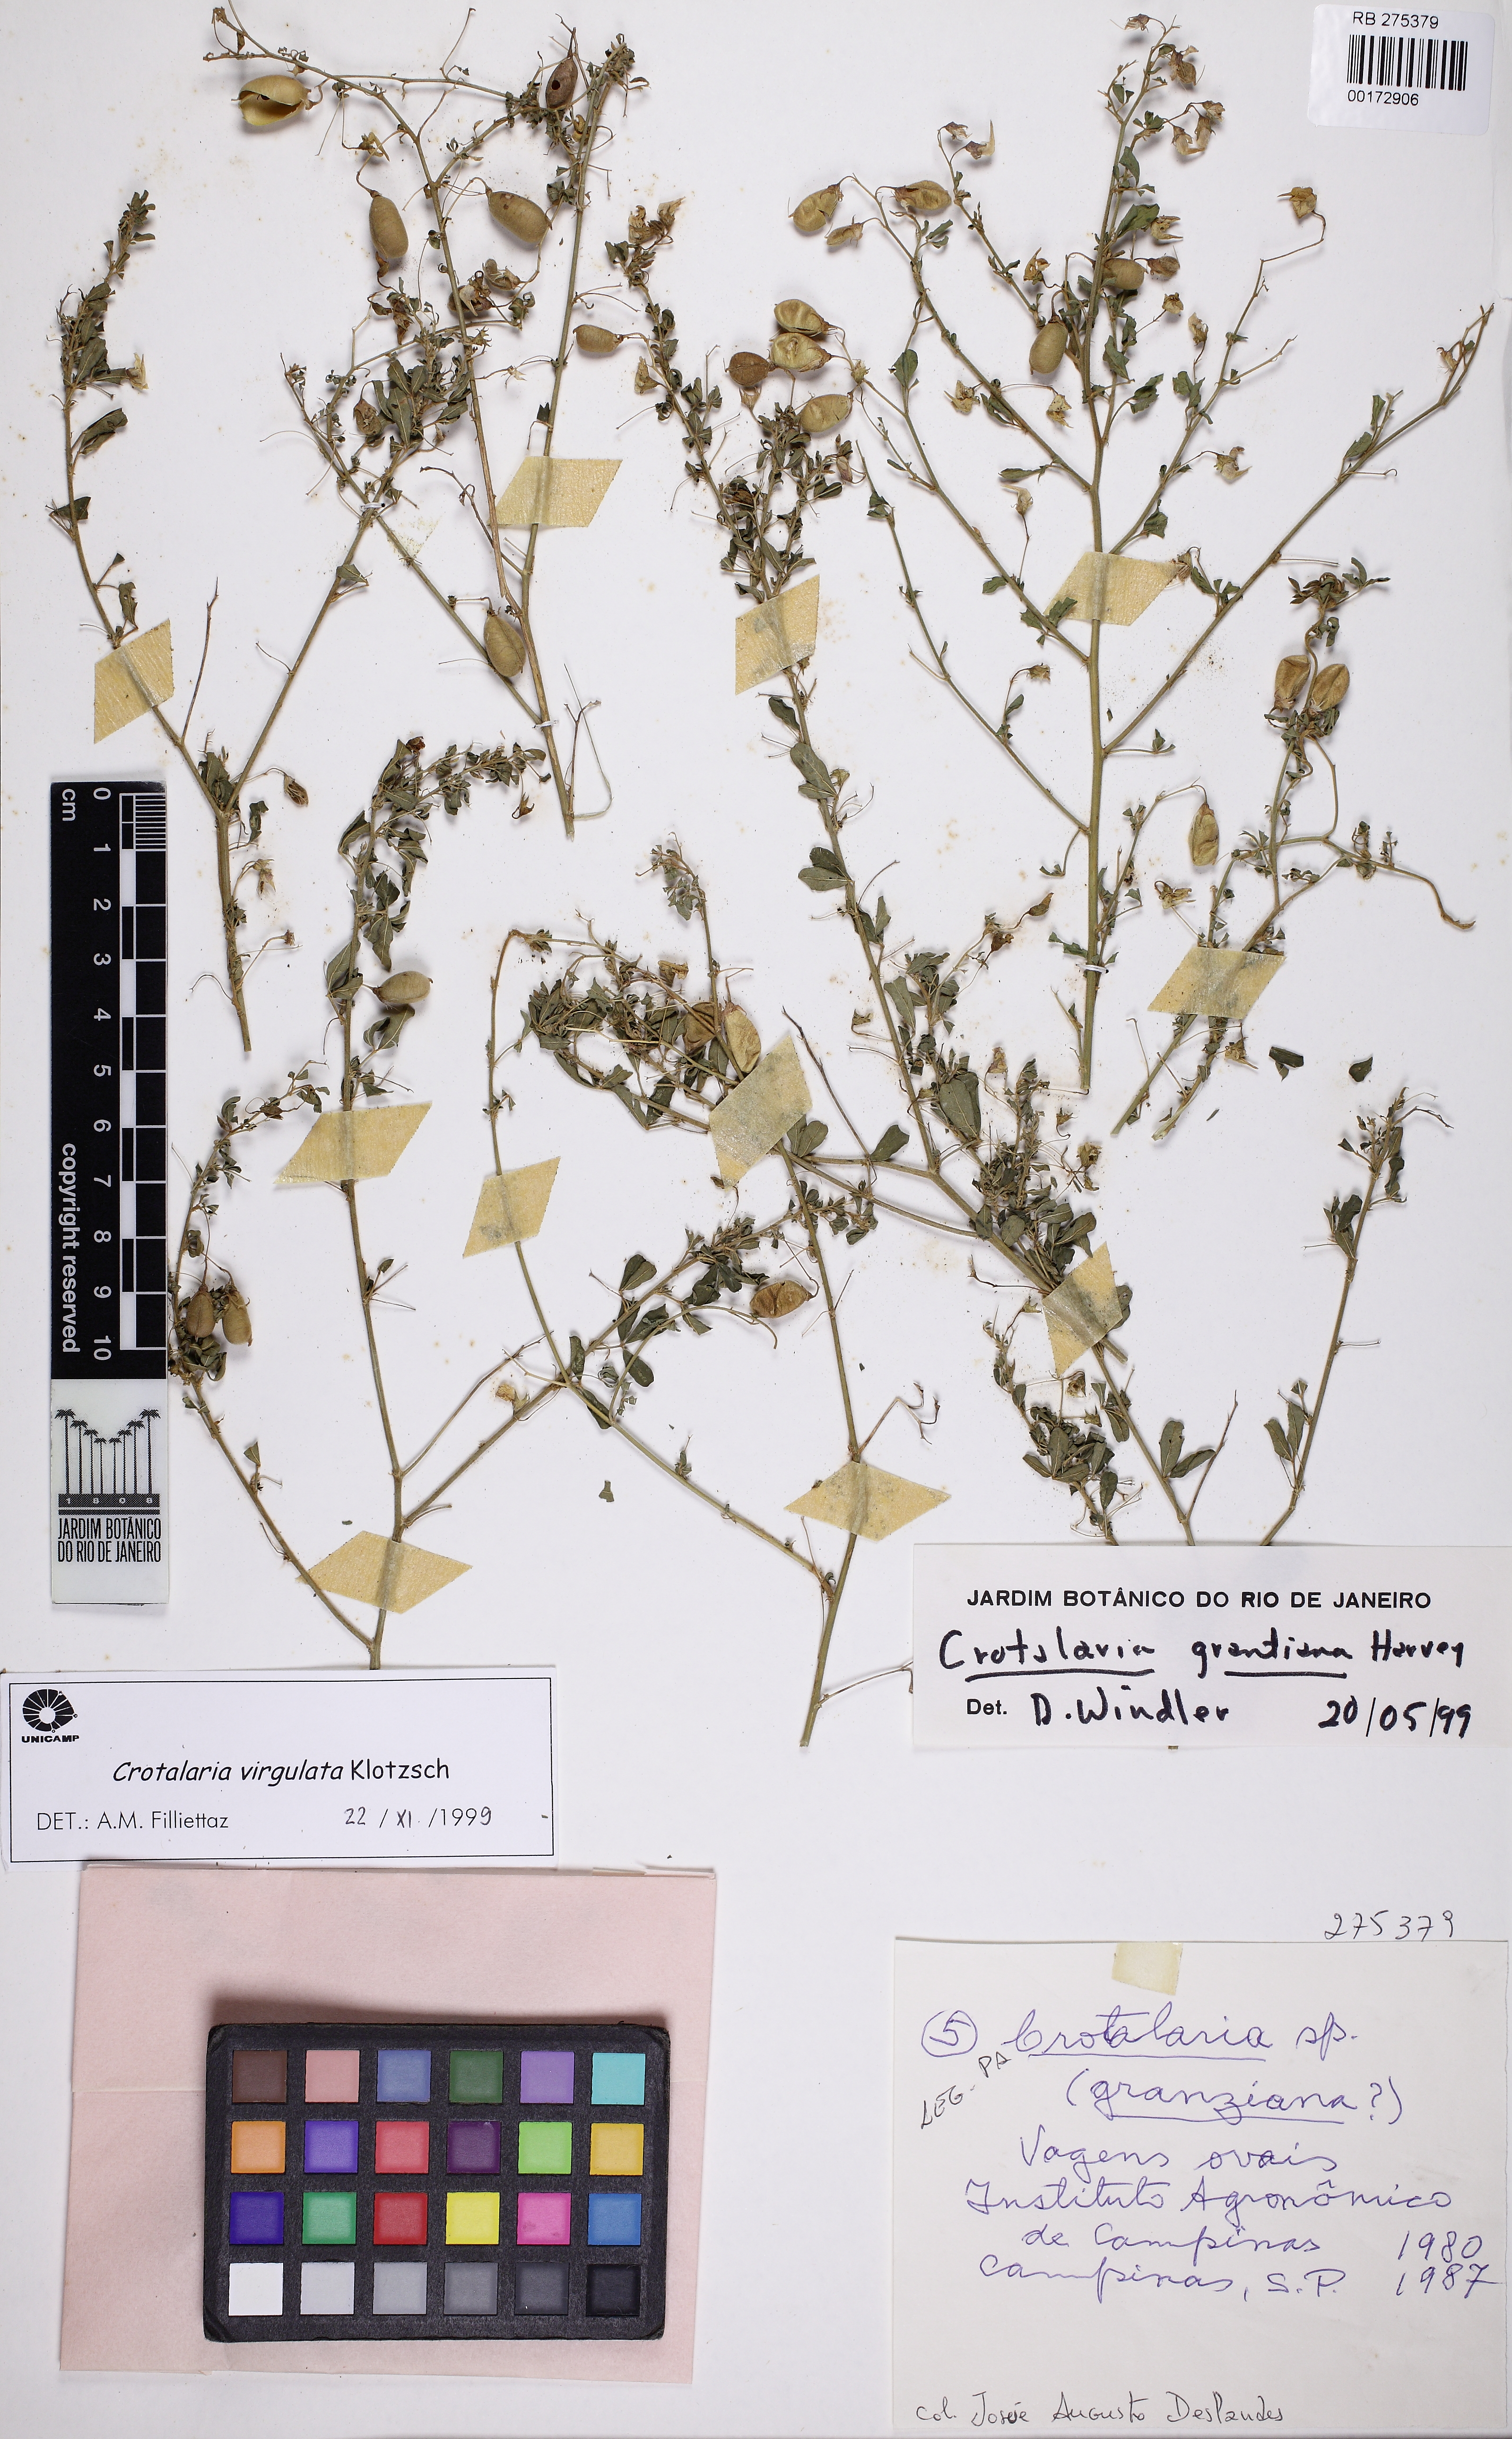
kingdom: Plantae
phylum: Tracheophyta
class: Magnoliopsida
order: Fabales
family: Fabaceae
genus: Crotalaria
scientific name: Crotalaria virgulata
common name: Thicket rattlebox
